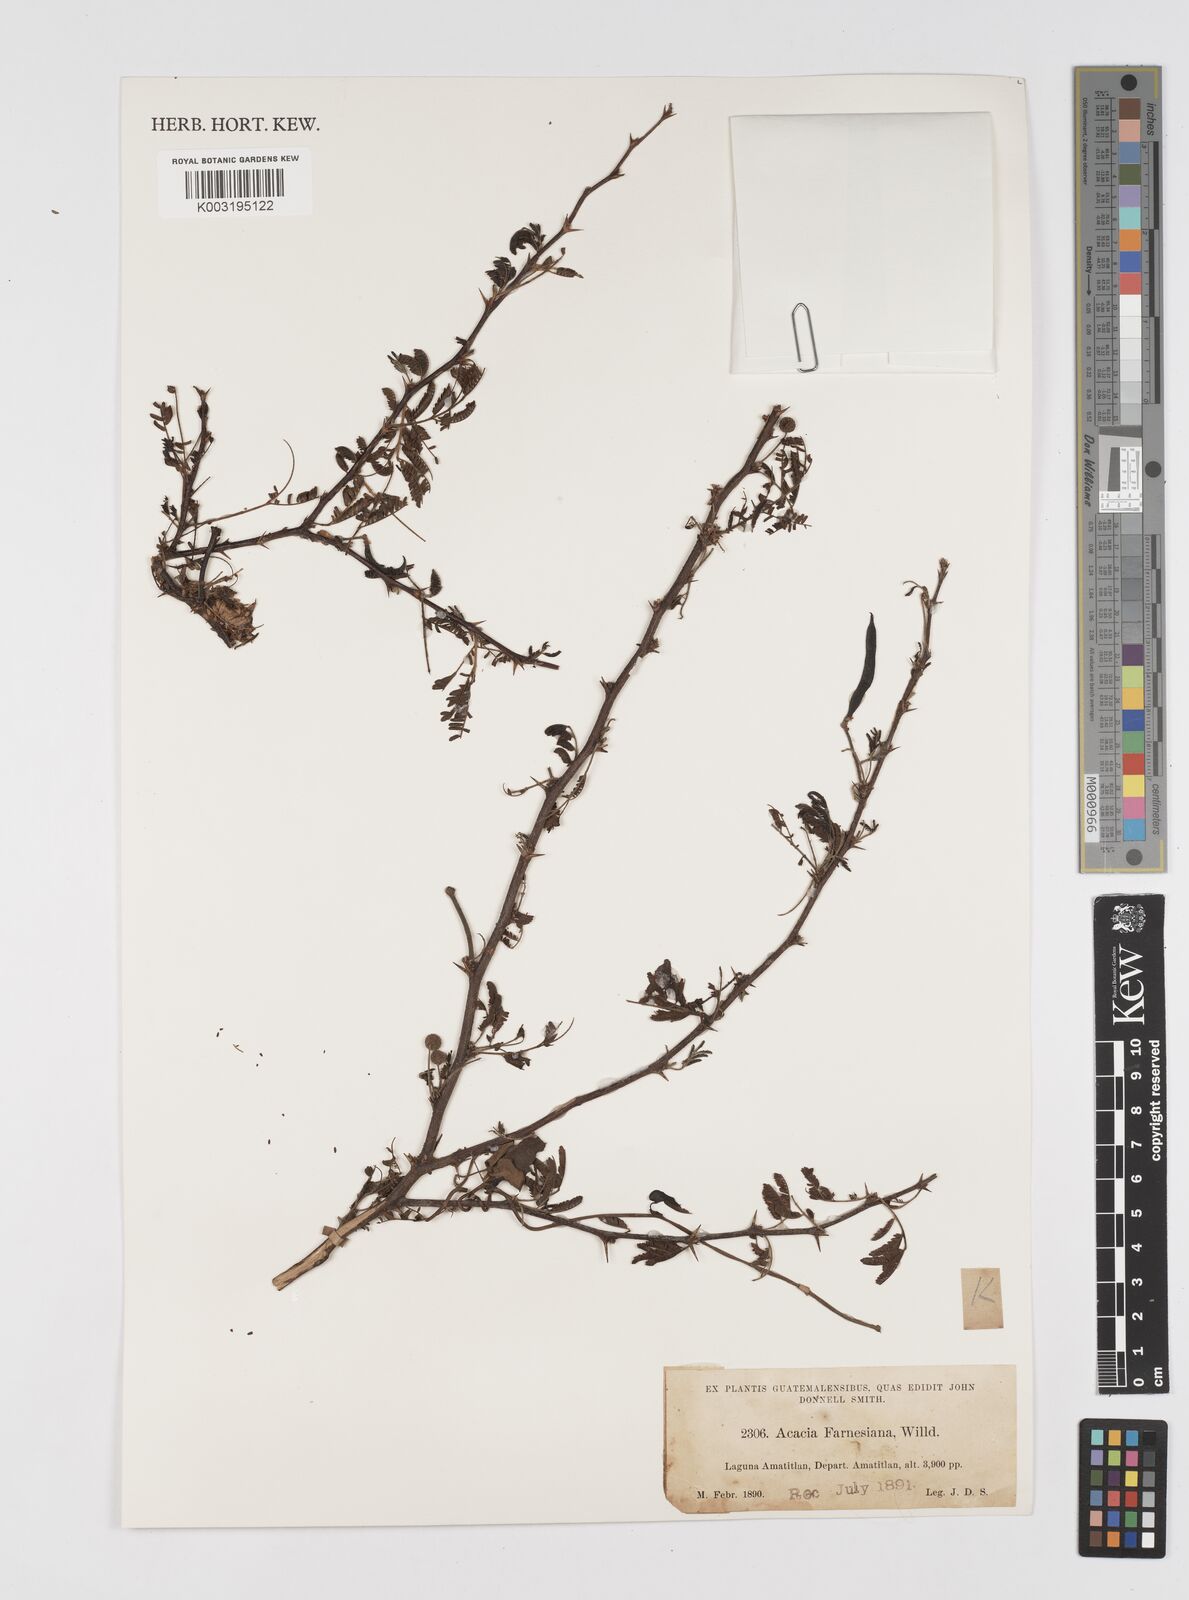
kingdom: Plantae
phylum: Tracheophyta
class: Magnoliopsida
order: Fabales
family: Fabaceae
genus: Vachellia
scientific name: Vachellia farnesiana
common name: Sweet acacia
